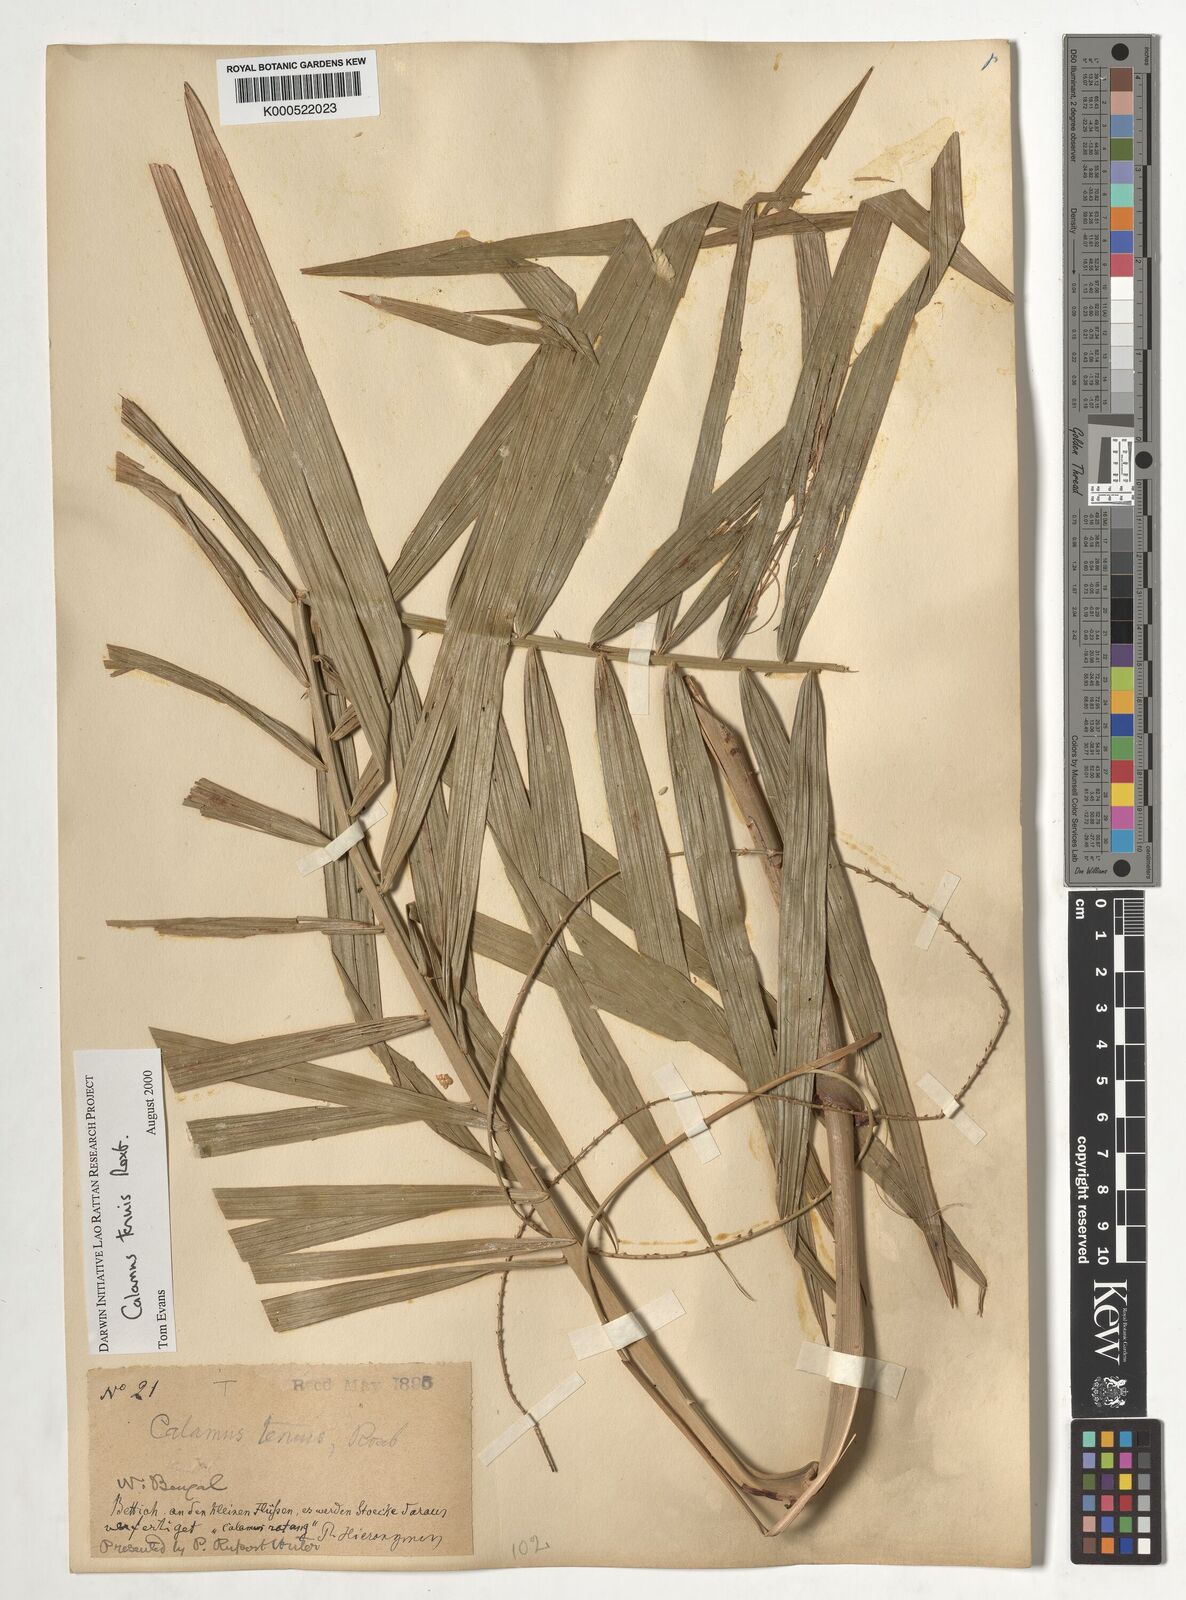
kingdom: Plantae
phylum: Tracheophyta
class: Liliopsida
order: Arecales
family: Arecaceae
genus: Calamus
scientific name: Calamus tenuis
